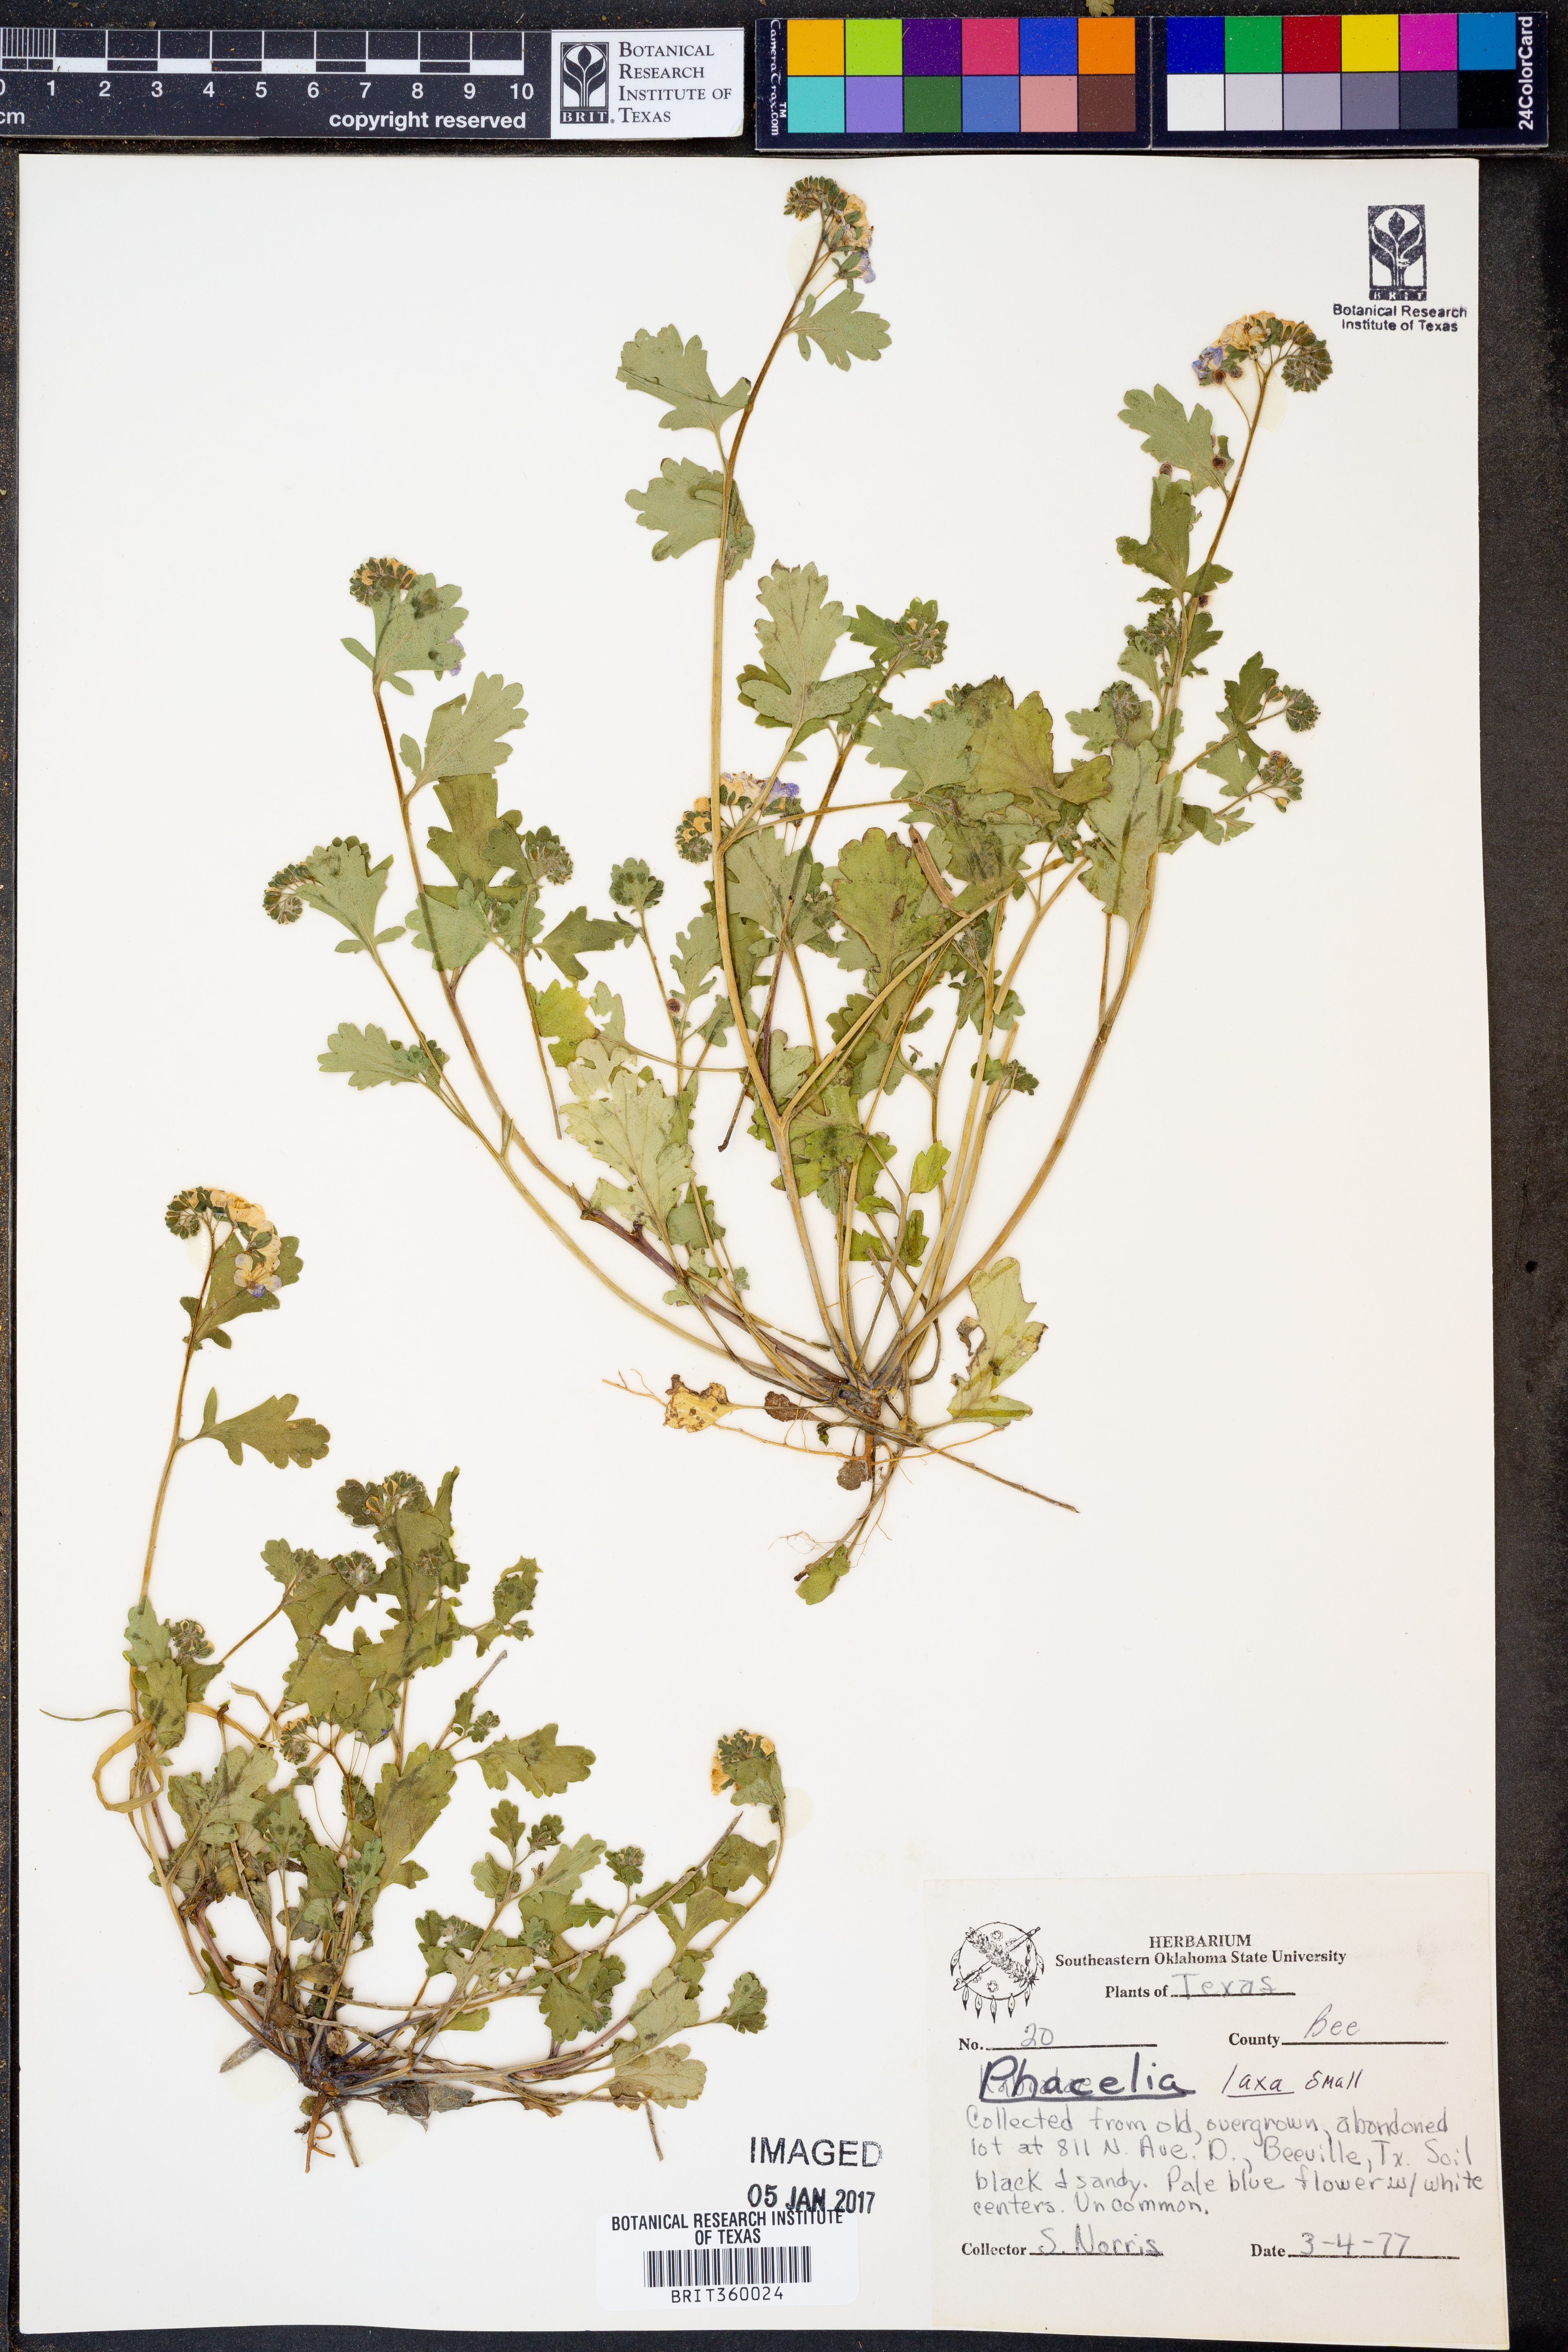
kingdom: Plantae
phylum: Tracheophyta
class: Magnoliopsida
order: Boraginales
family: Hydrophyllaceae
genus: Phacelia
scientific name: Phacelia laxa
